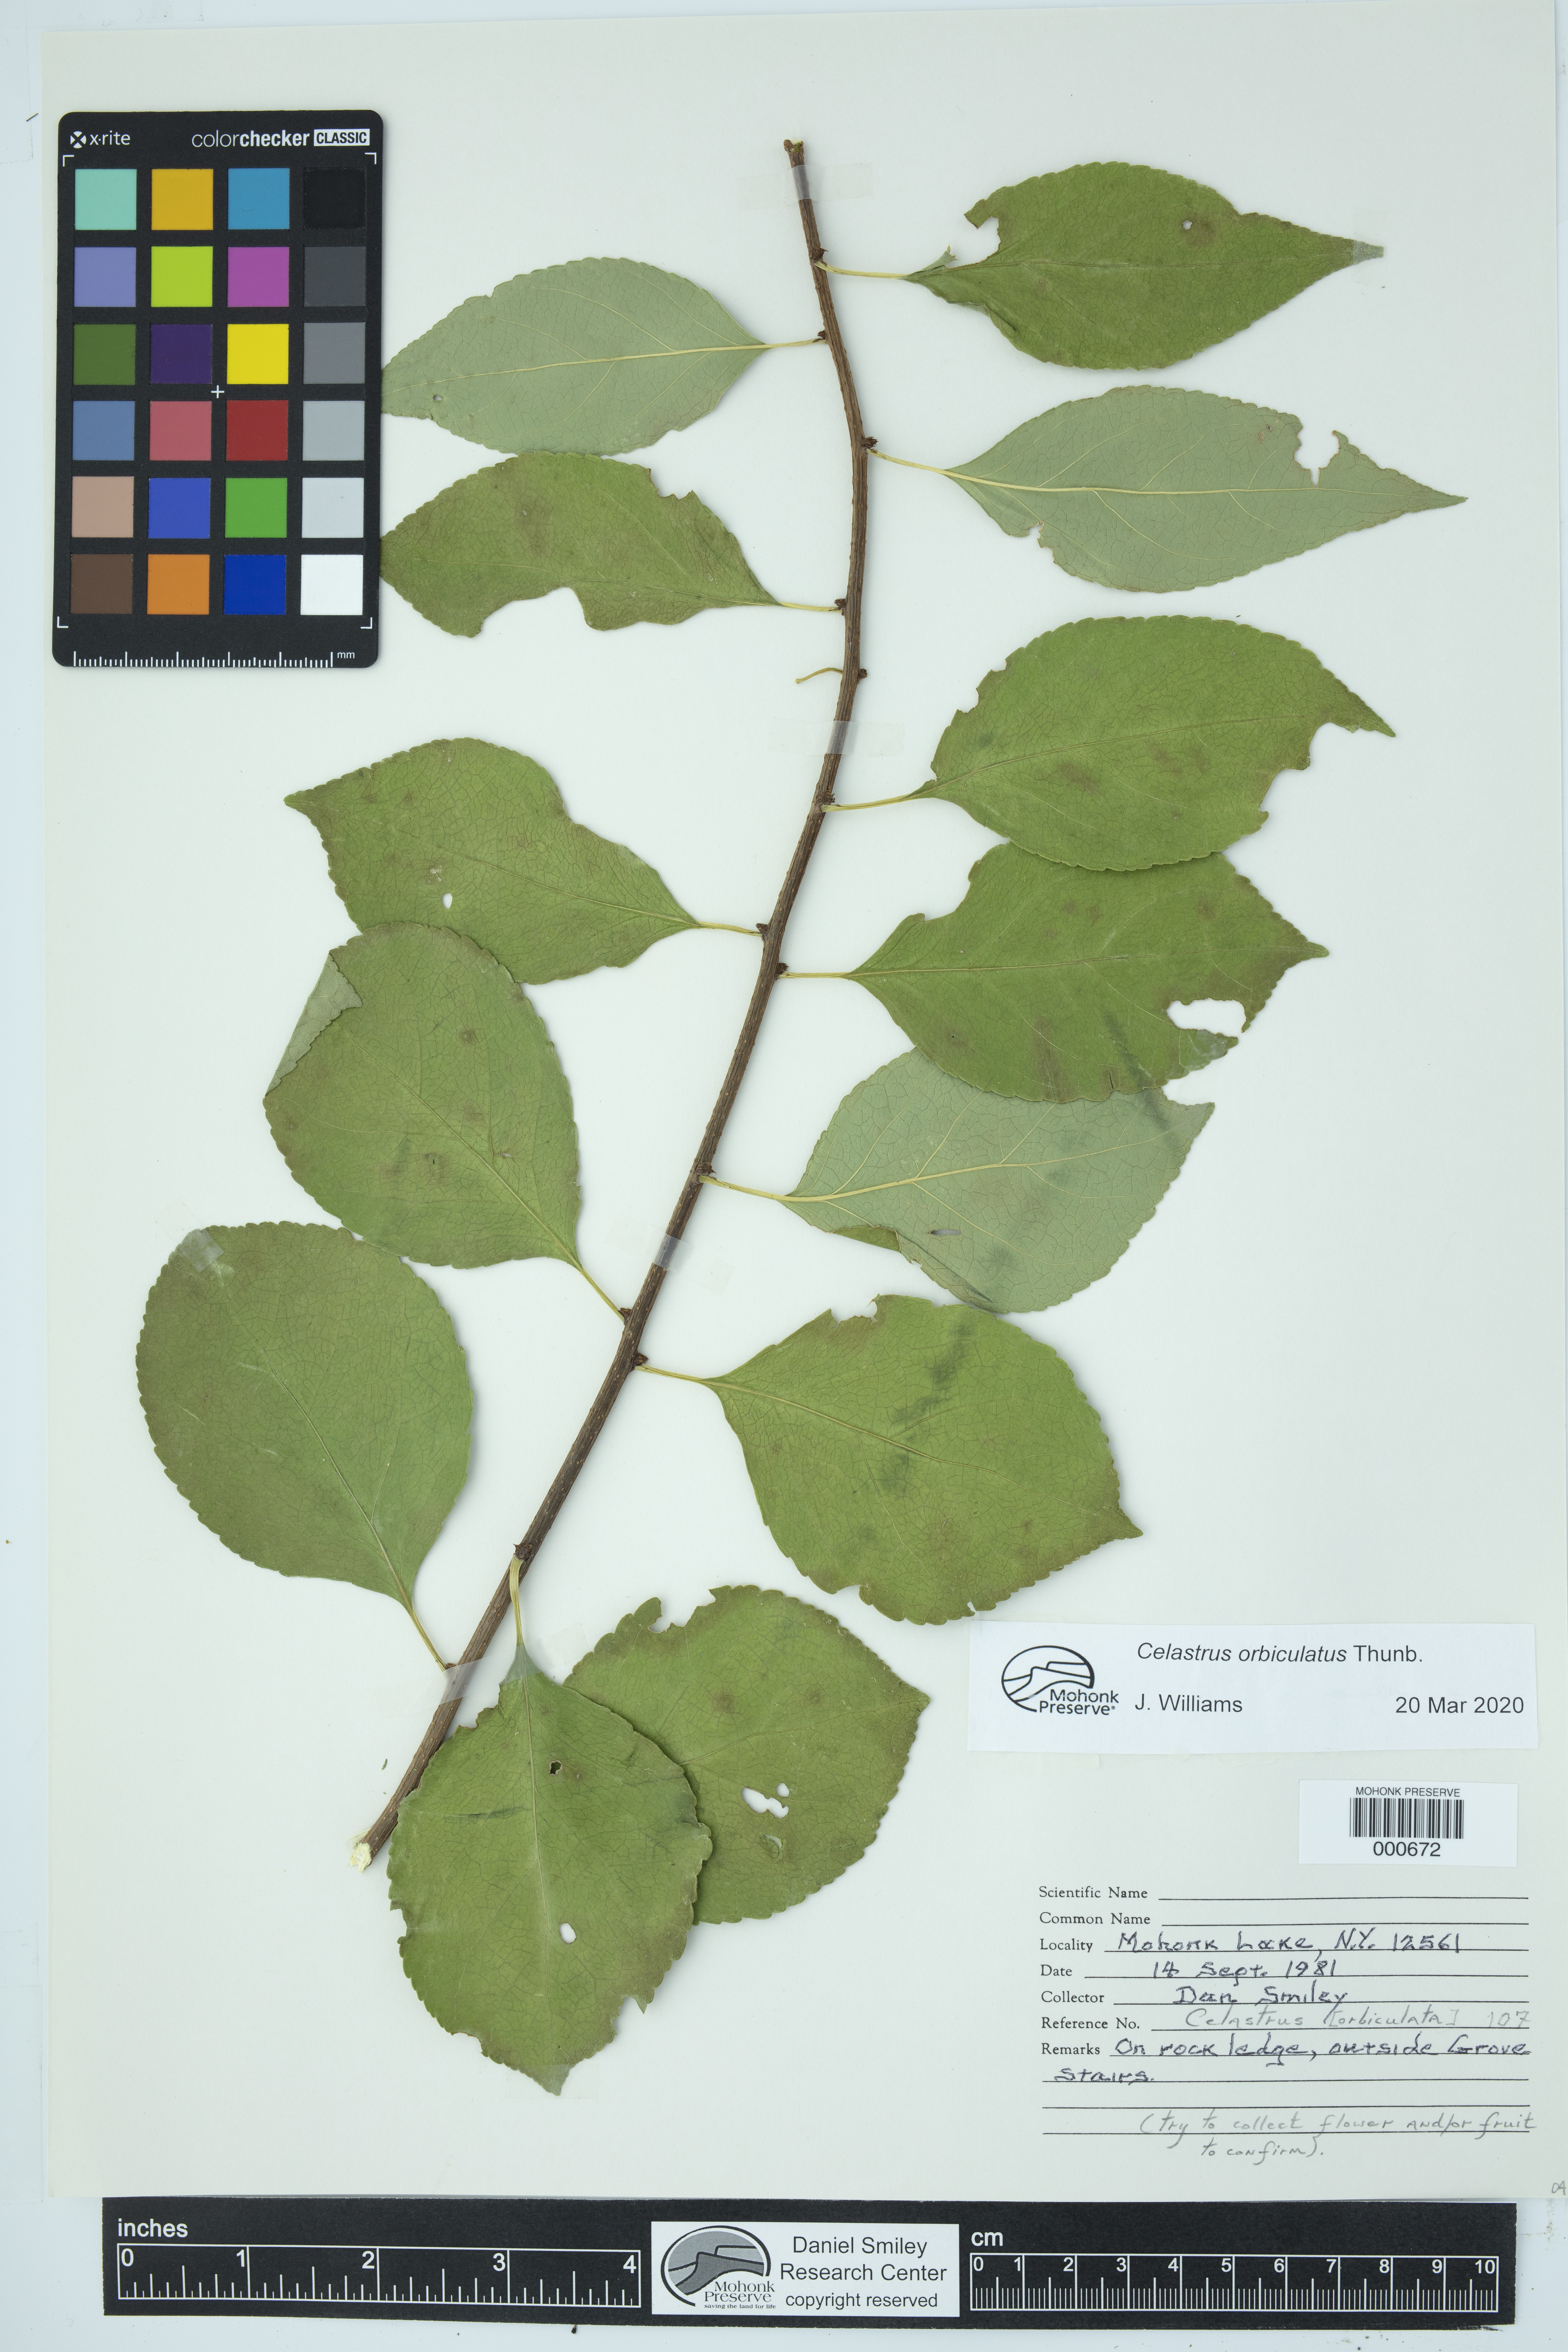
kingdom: Plantae
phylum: Tracheophyta
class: Magnoliopsida
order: Celastrales
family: Celastraceae
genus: Celastrus
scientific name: Celastrus orbiculatus
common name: Oriental bittersweet
